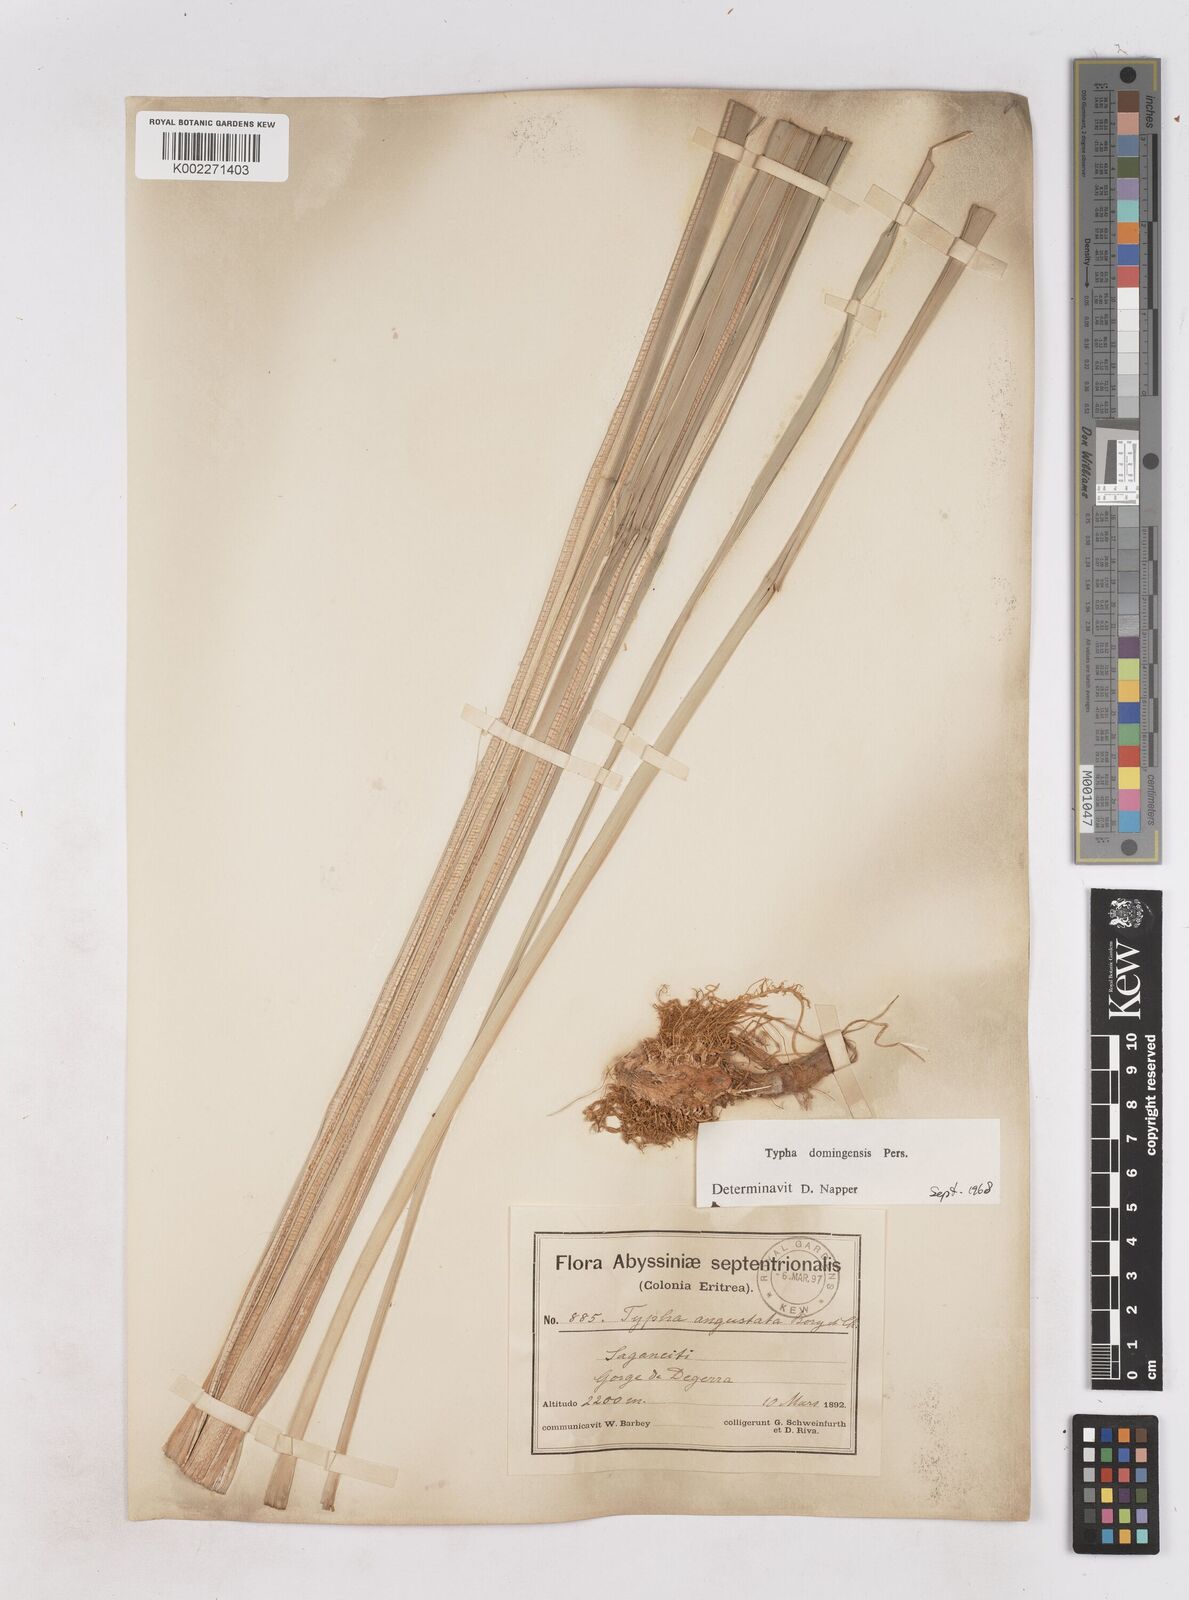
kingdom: Plantae
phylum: Tracheophyta
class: Liliopsida
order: Poales
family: Typhaceae
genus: Typha
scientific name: Typha domingensis
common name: Southern cattail
